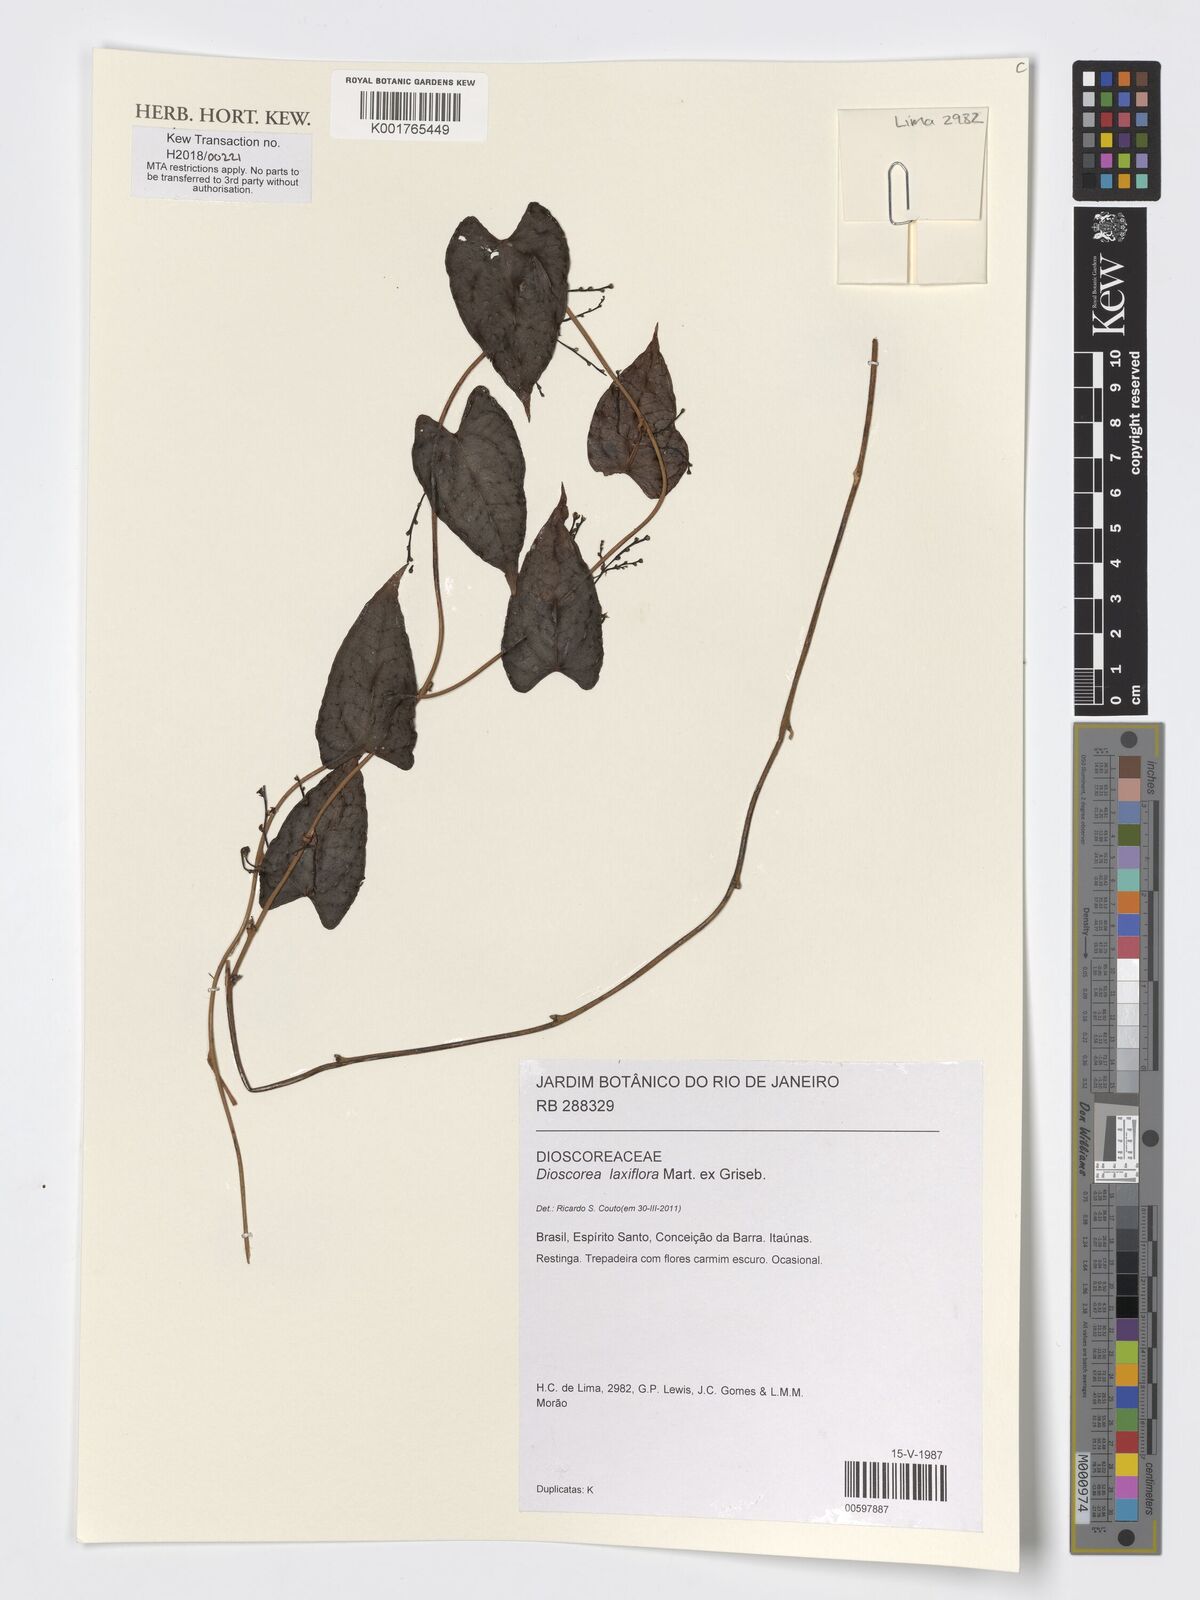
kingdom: Plantae
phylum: Tracheophyta
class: Liliopsida
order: Dioscoreales
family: Dioscoreaceae
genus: Dioscorea
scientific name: Dioscorea laxiflora
